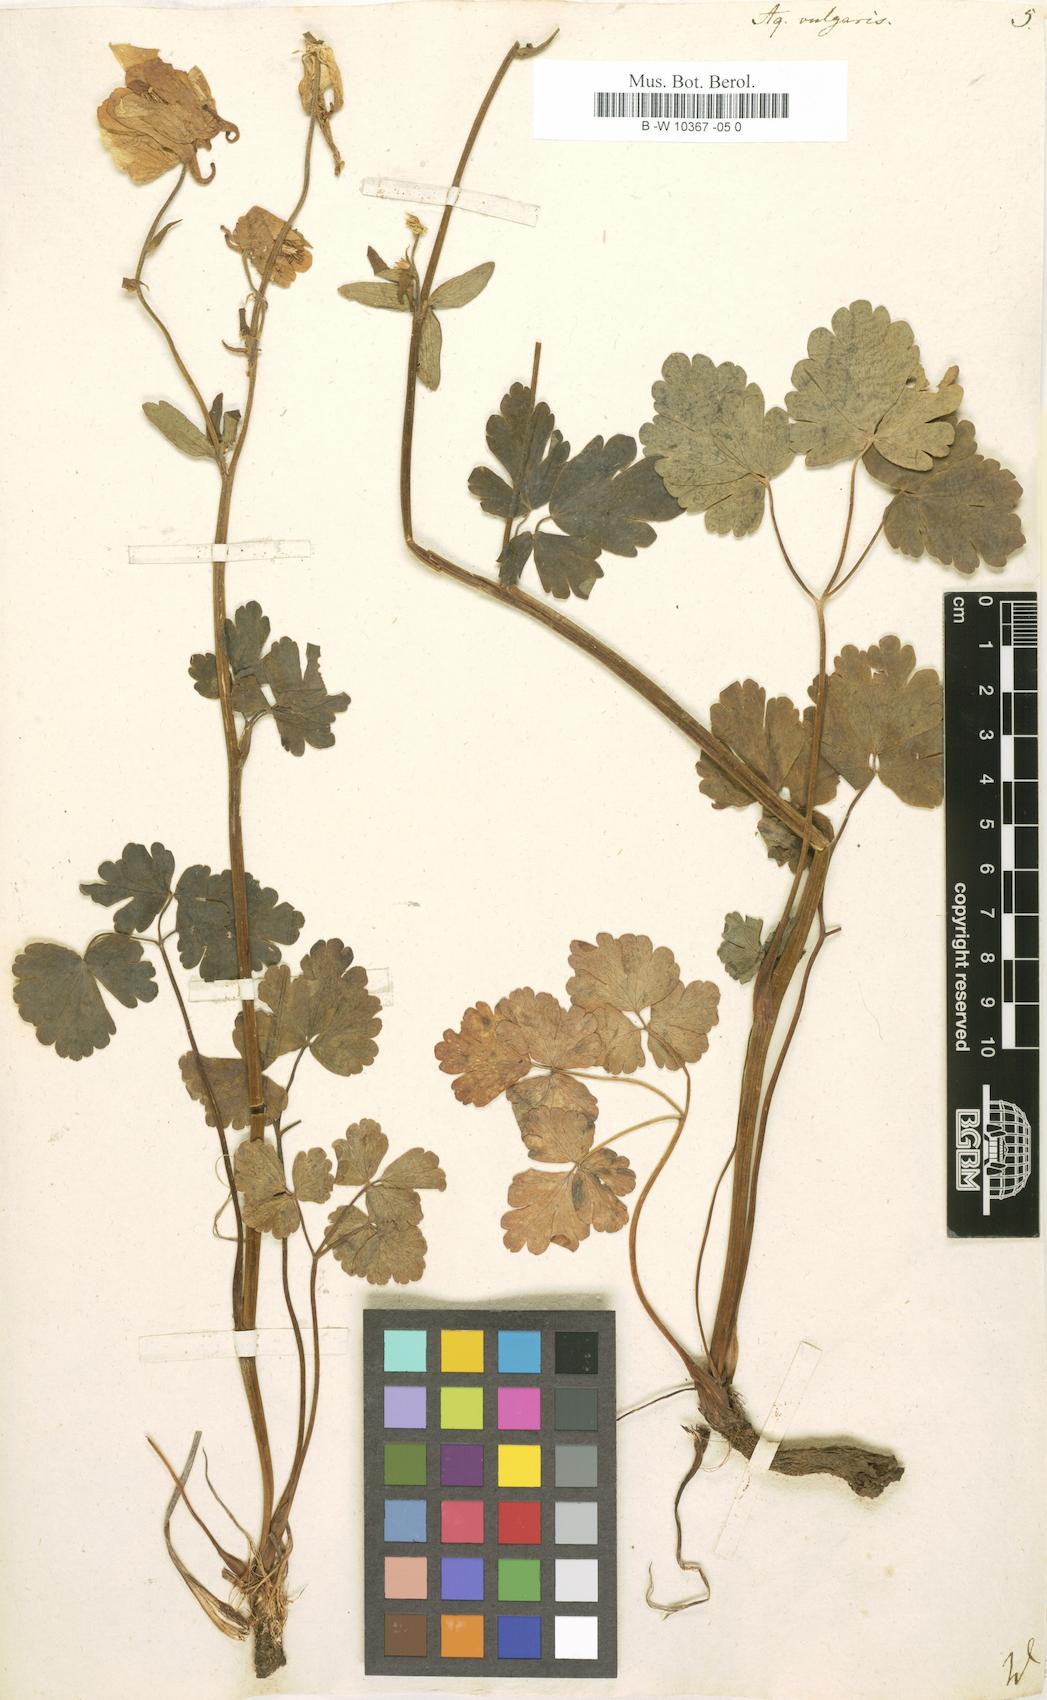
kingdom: Plantae
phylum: Tracheophyta
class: Magnoliopsida
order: Ranunculales
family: Ranunculaceae
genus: Aquilegia
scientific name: Aquilegia vulgaris
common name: Columbine
